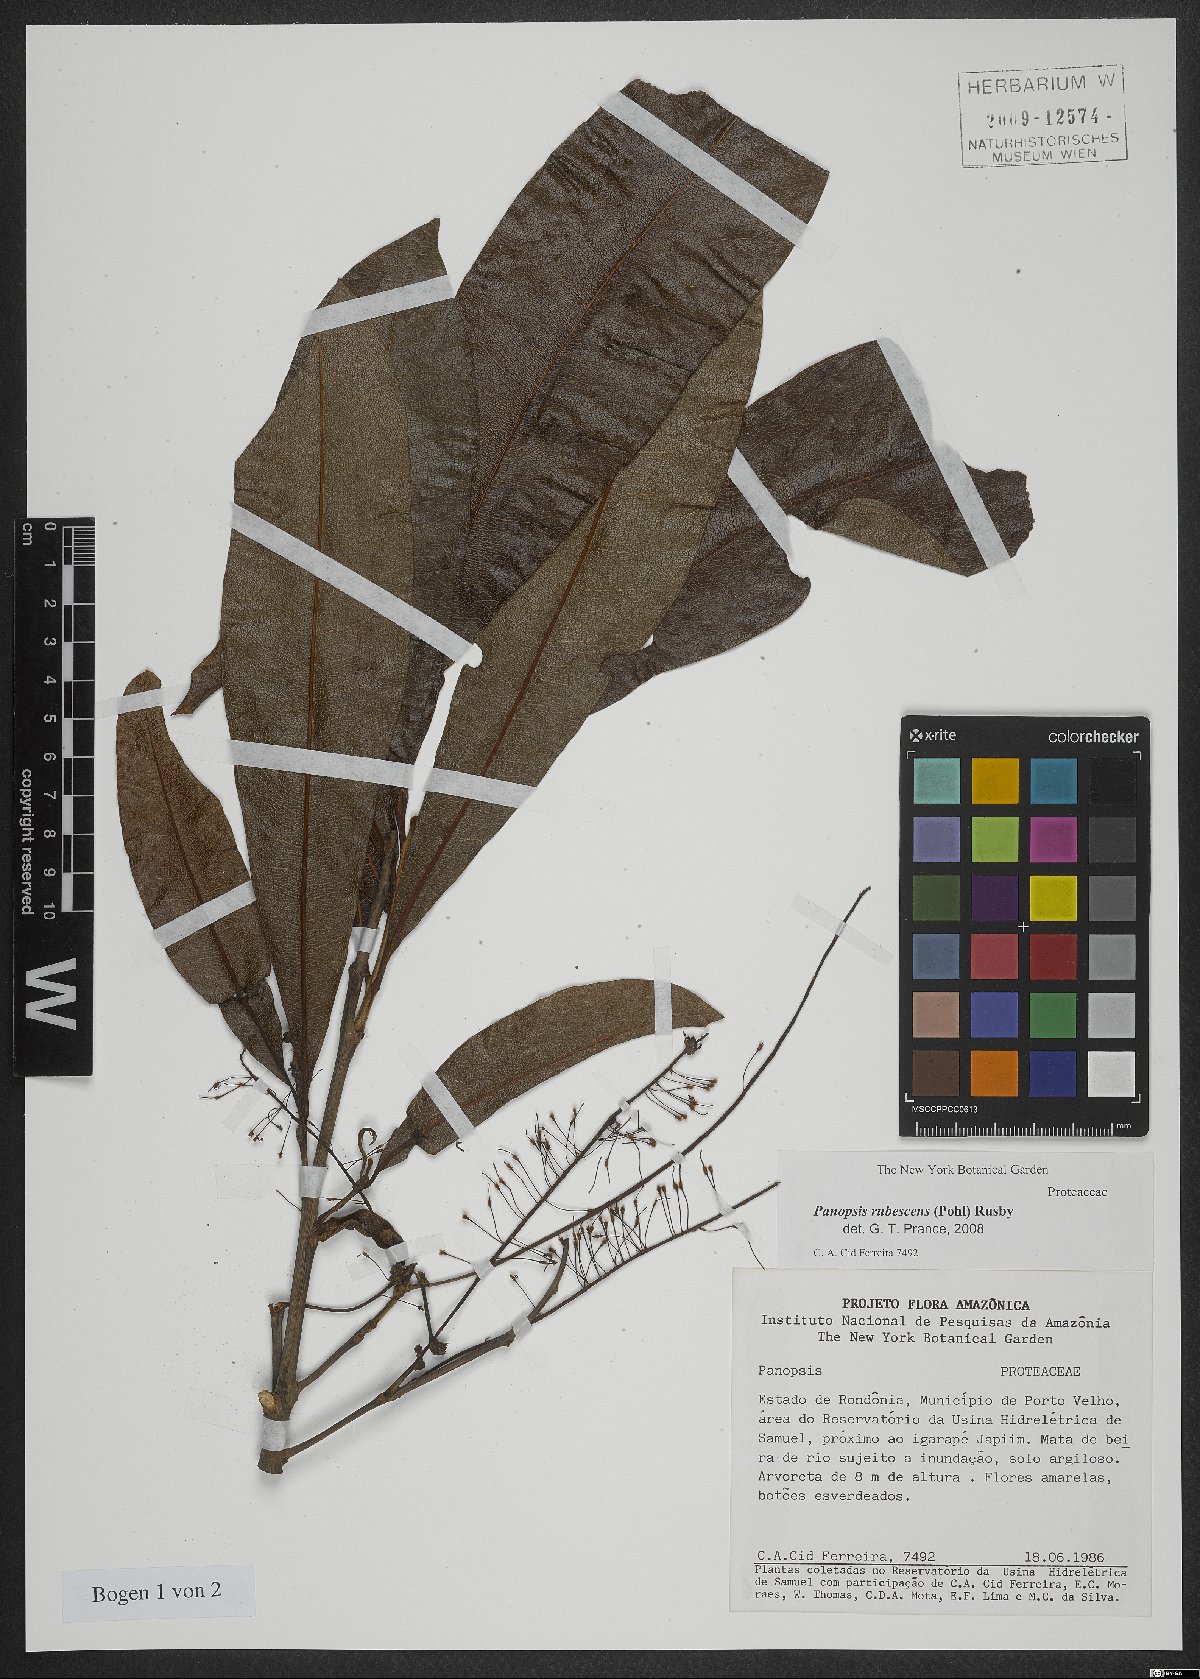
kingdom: Plantae
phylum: Tracheophyta
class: Magnoliopsida
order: Proteales
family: Proteaceae
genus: Panopsis
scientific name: Panopsis rubescens
